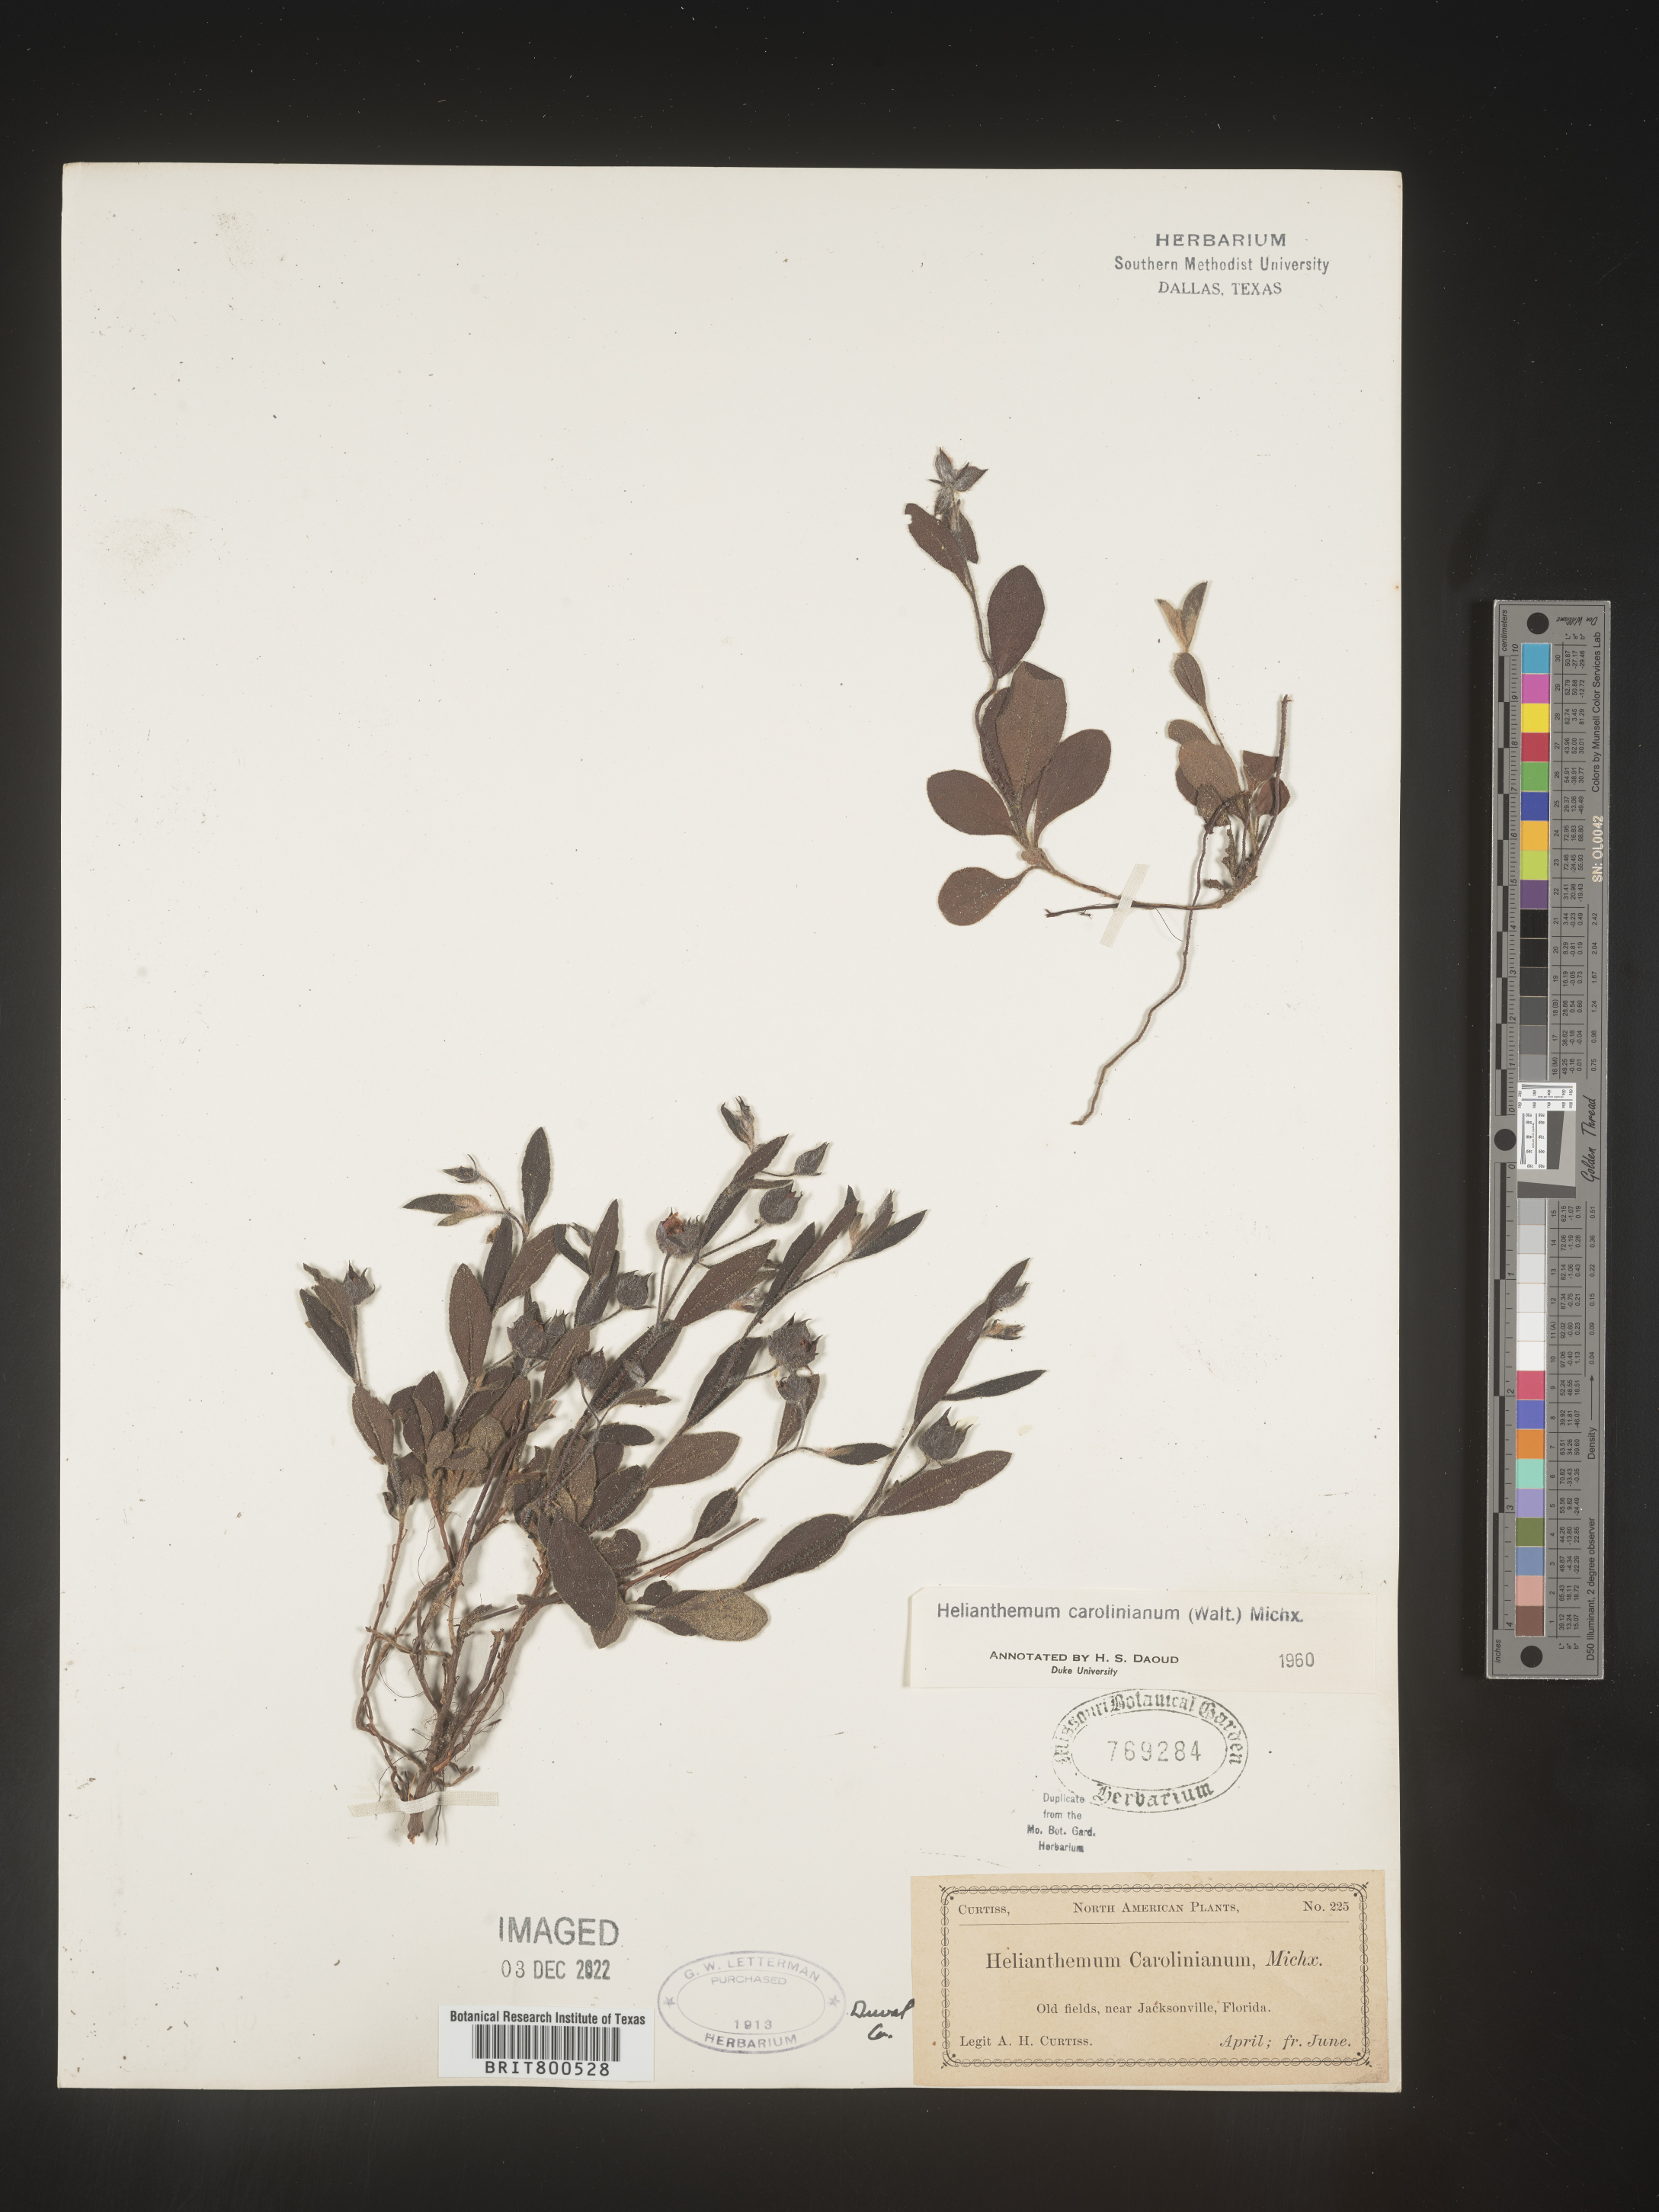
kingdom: Plantae
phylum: Tracheophyta
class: Magnoliopsida
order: Malvales
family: Cistaceae
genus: Crocanthemum
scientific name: Crocanthemum carolinianum
